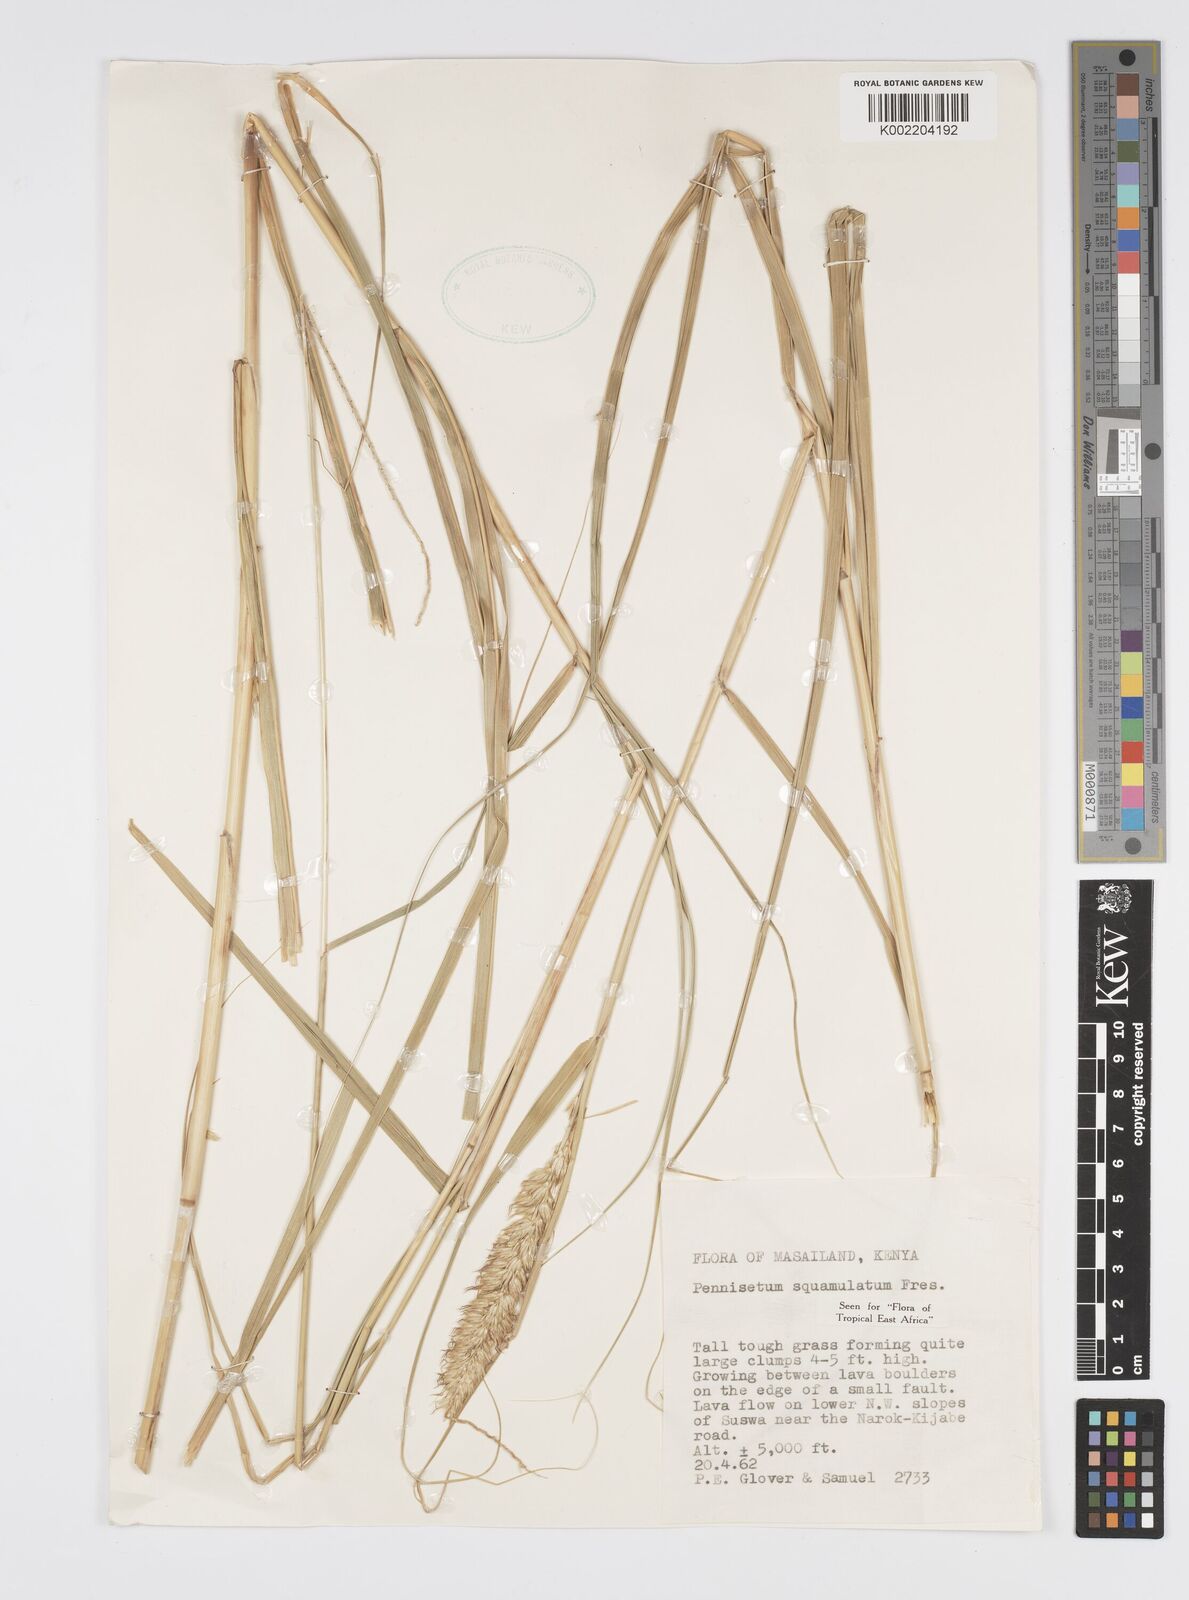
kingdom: Plantae
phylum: Tracheophyta
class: Liliopsida
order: Poales
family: Poaceae
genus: Cenchrus
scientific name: Cenchrus squamulatus
